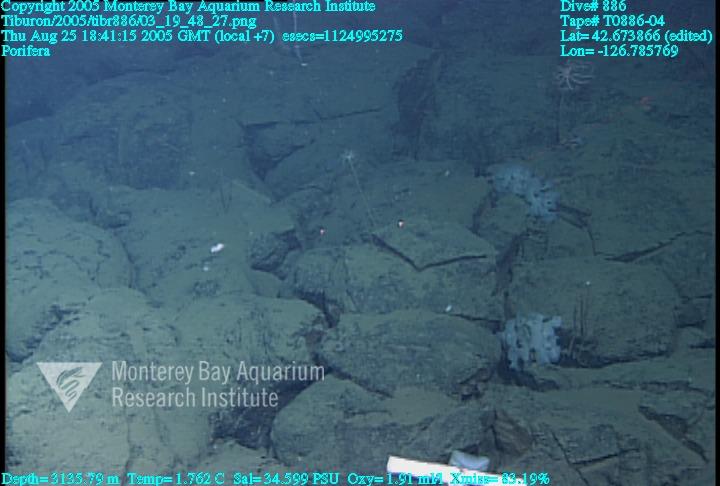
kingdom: Animalia
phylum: Porifera
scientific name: Porifera
